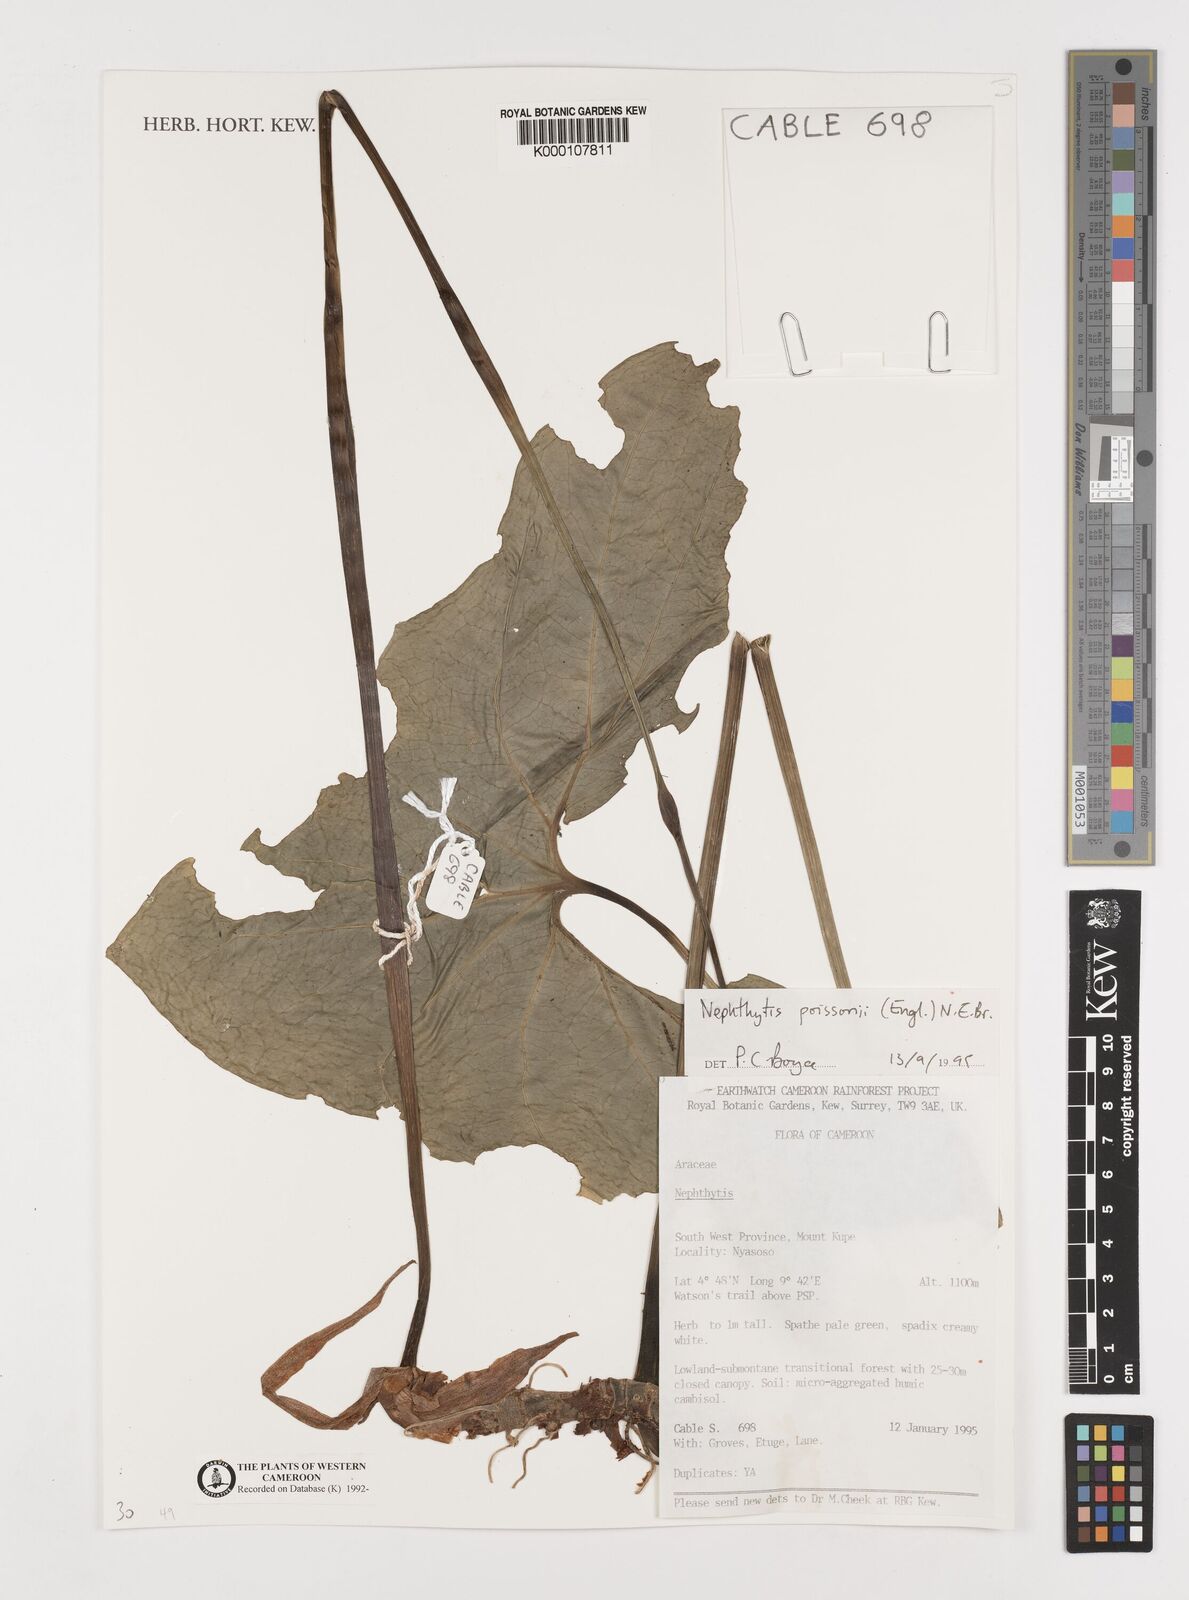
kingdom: Plantae
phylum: Tracheophyta
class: Liliopsida
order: Alismatales
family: Araceae
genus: Nephthytis
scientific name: Nephthytis poissonii
